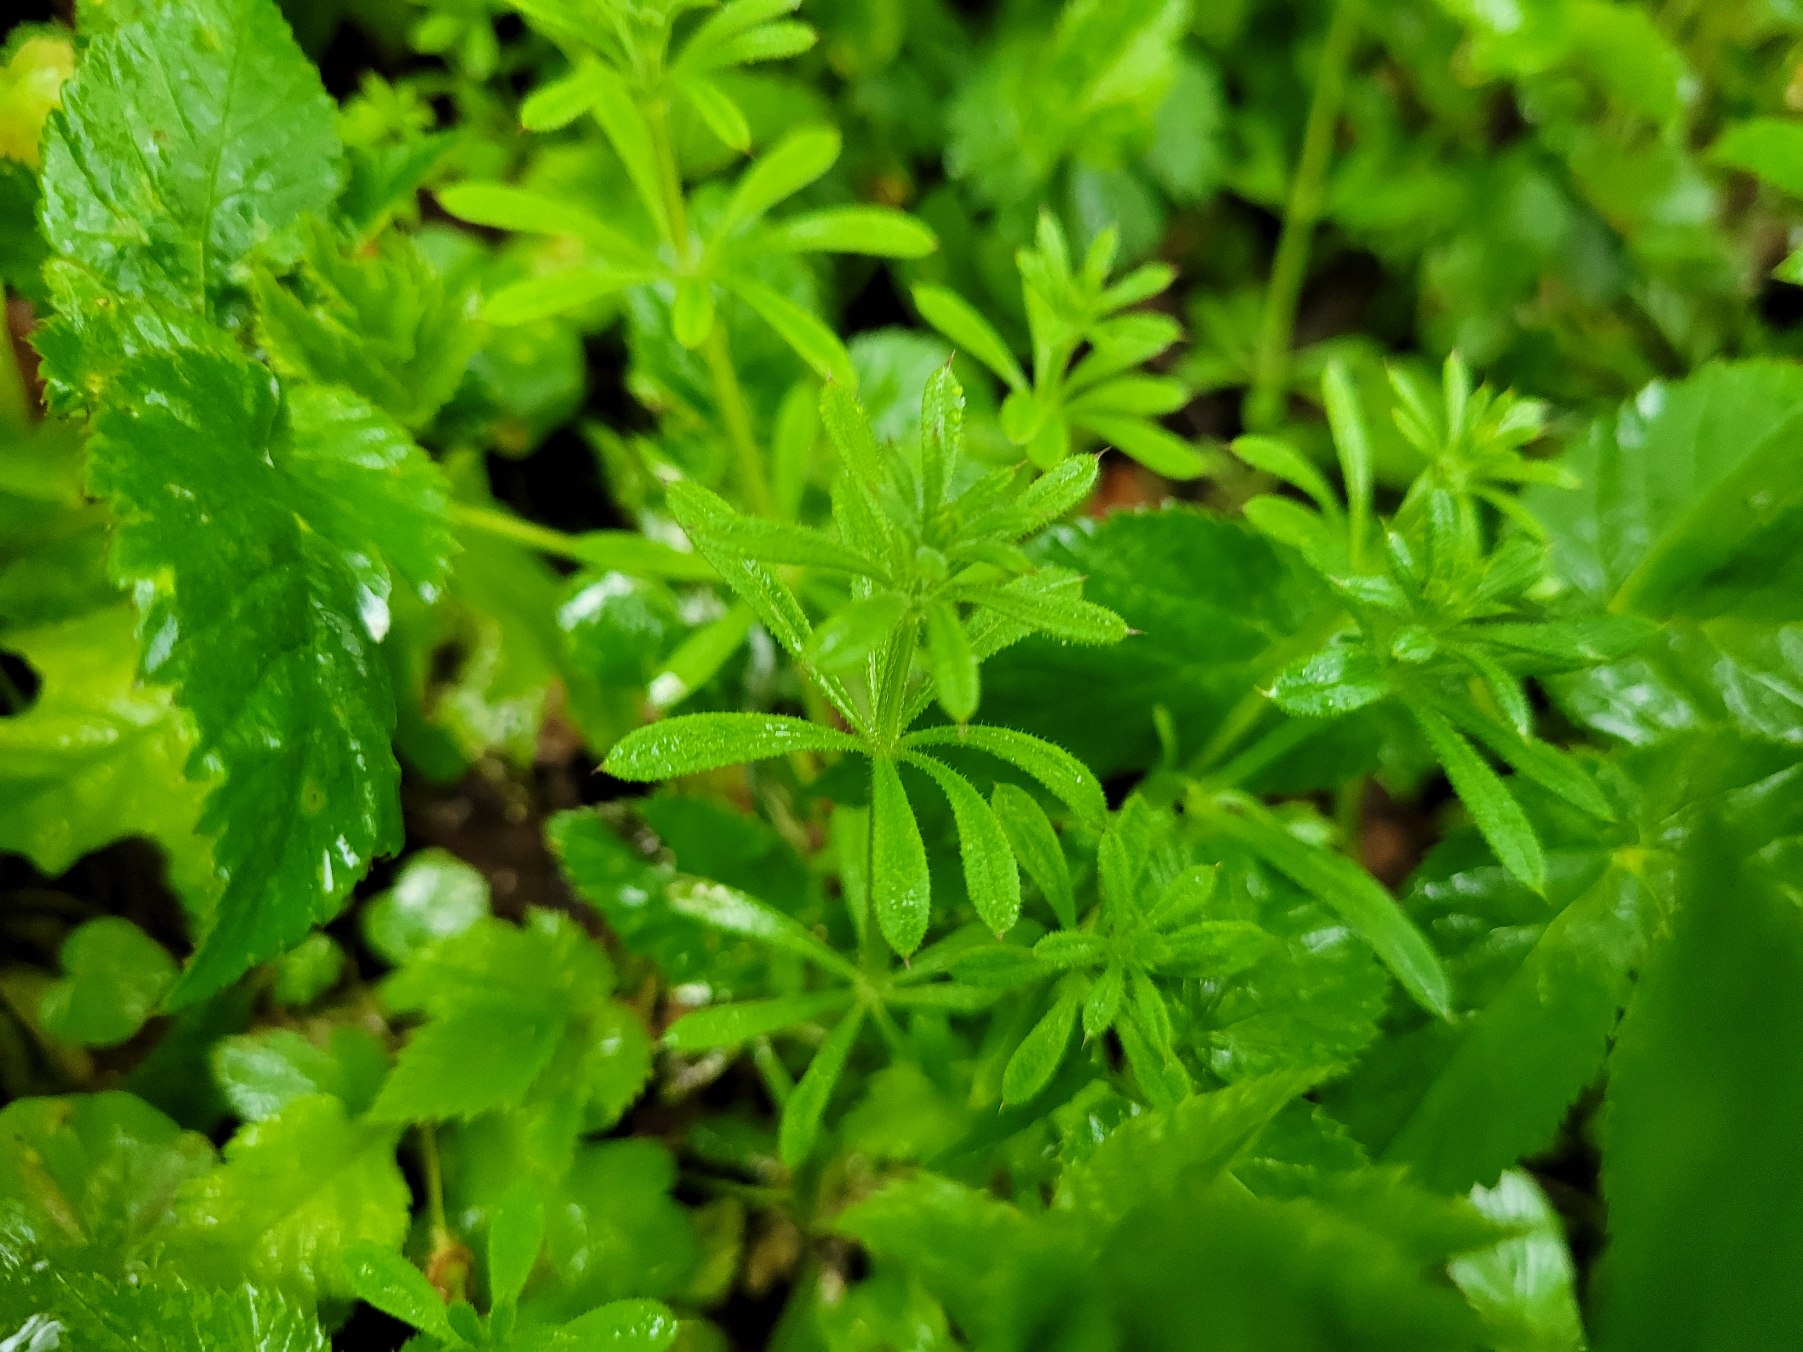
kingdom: Plantae
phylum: Tracheophyta
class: Magnoliopsida
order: Gentianales
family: Rubiaceae
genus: Galium
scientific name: Galium aparine
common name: Burre-snerre
